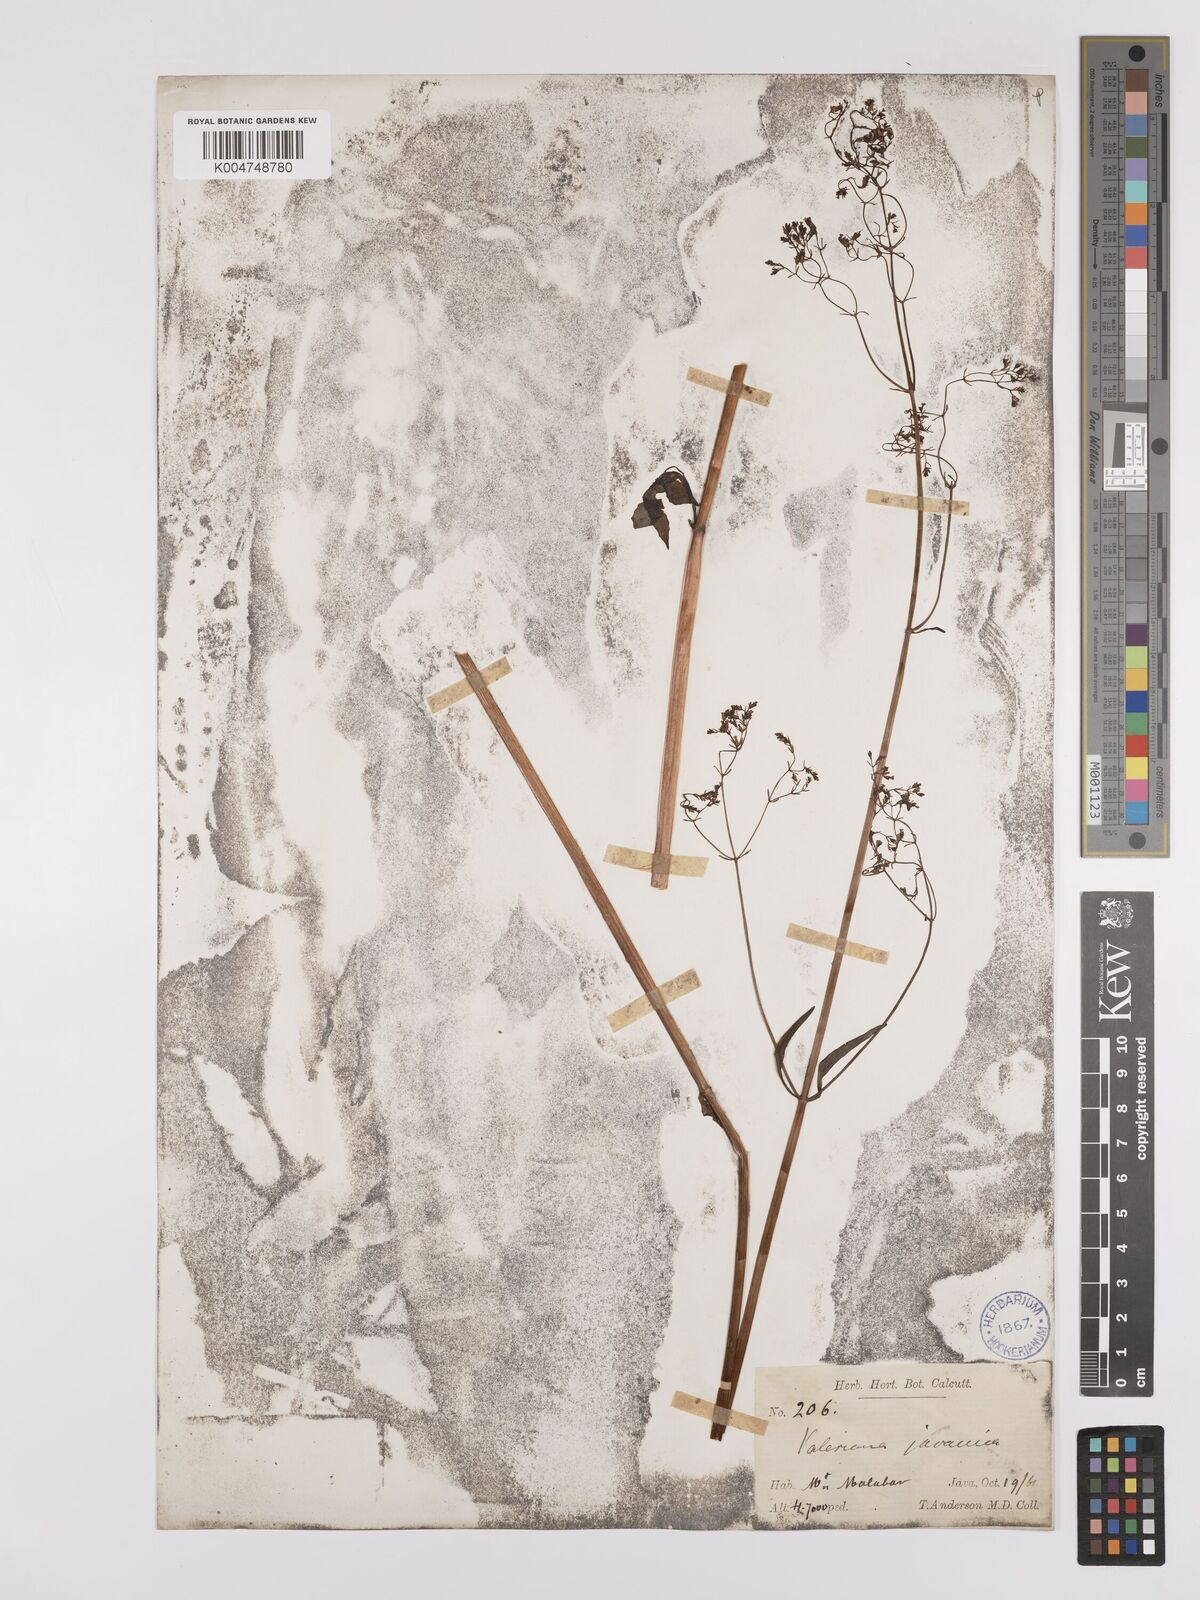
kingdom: Plantae
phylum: Tracheophyta
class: Magnoliopsida
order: Dipsacales
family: Caprifoliaceae
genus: Valeriana
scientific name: Valeriana hardwickei
